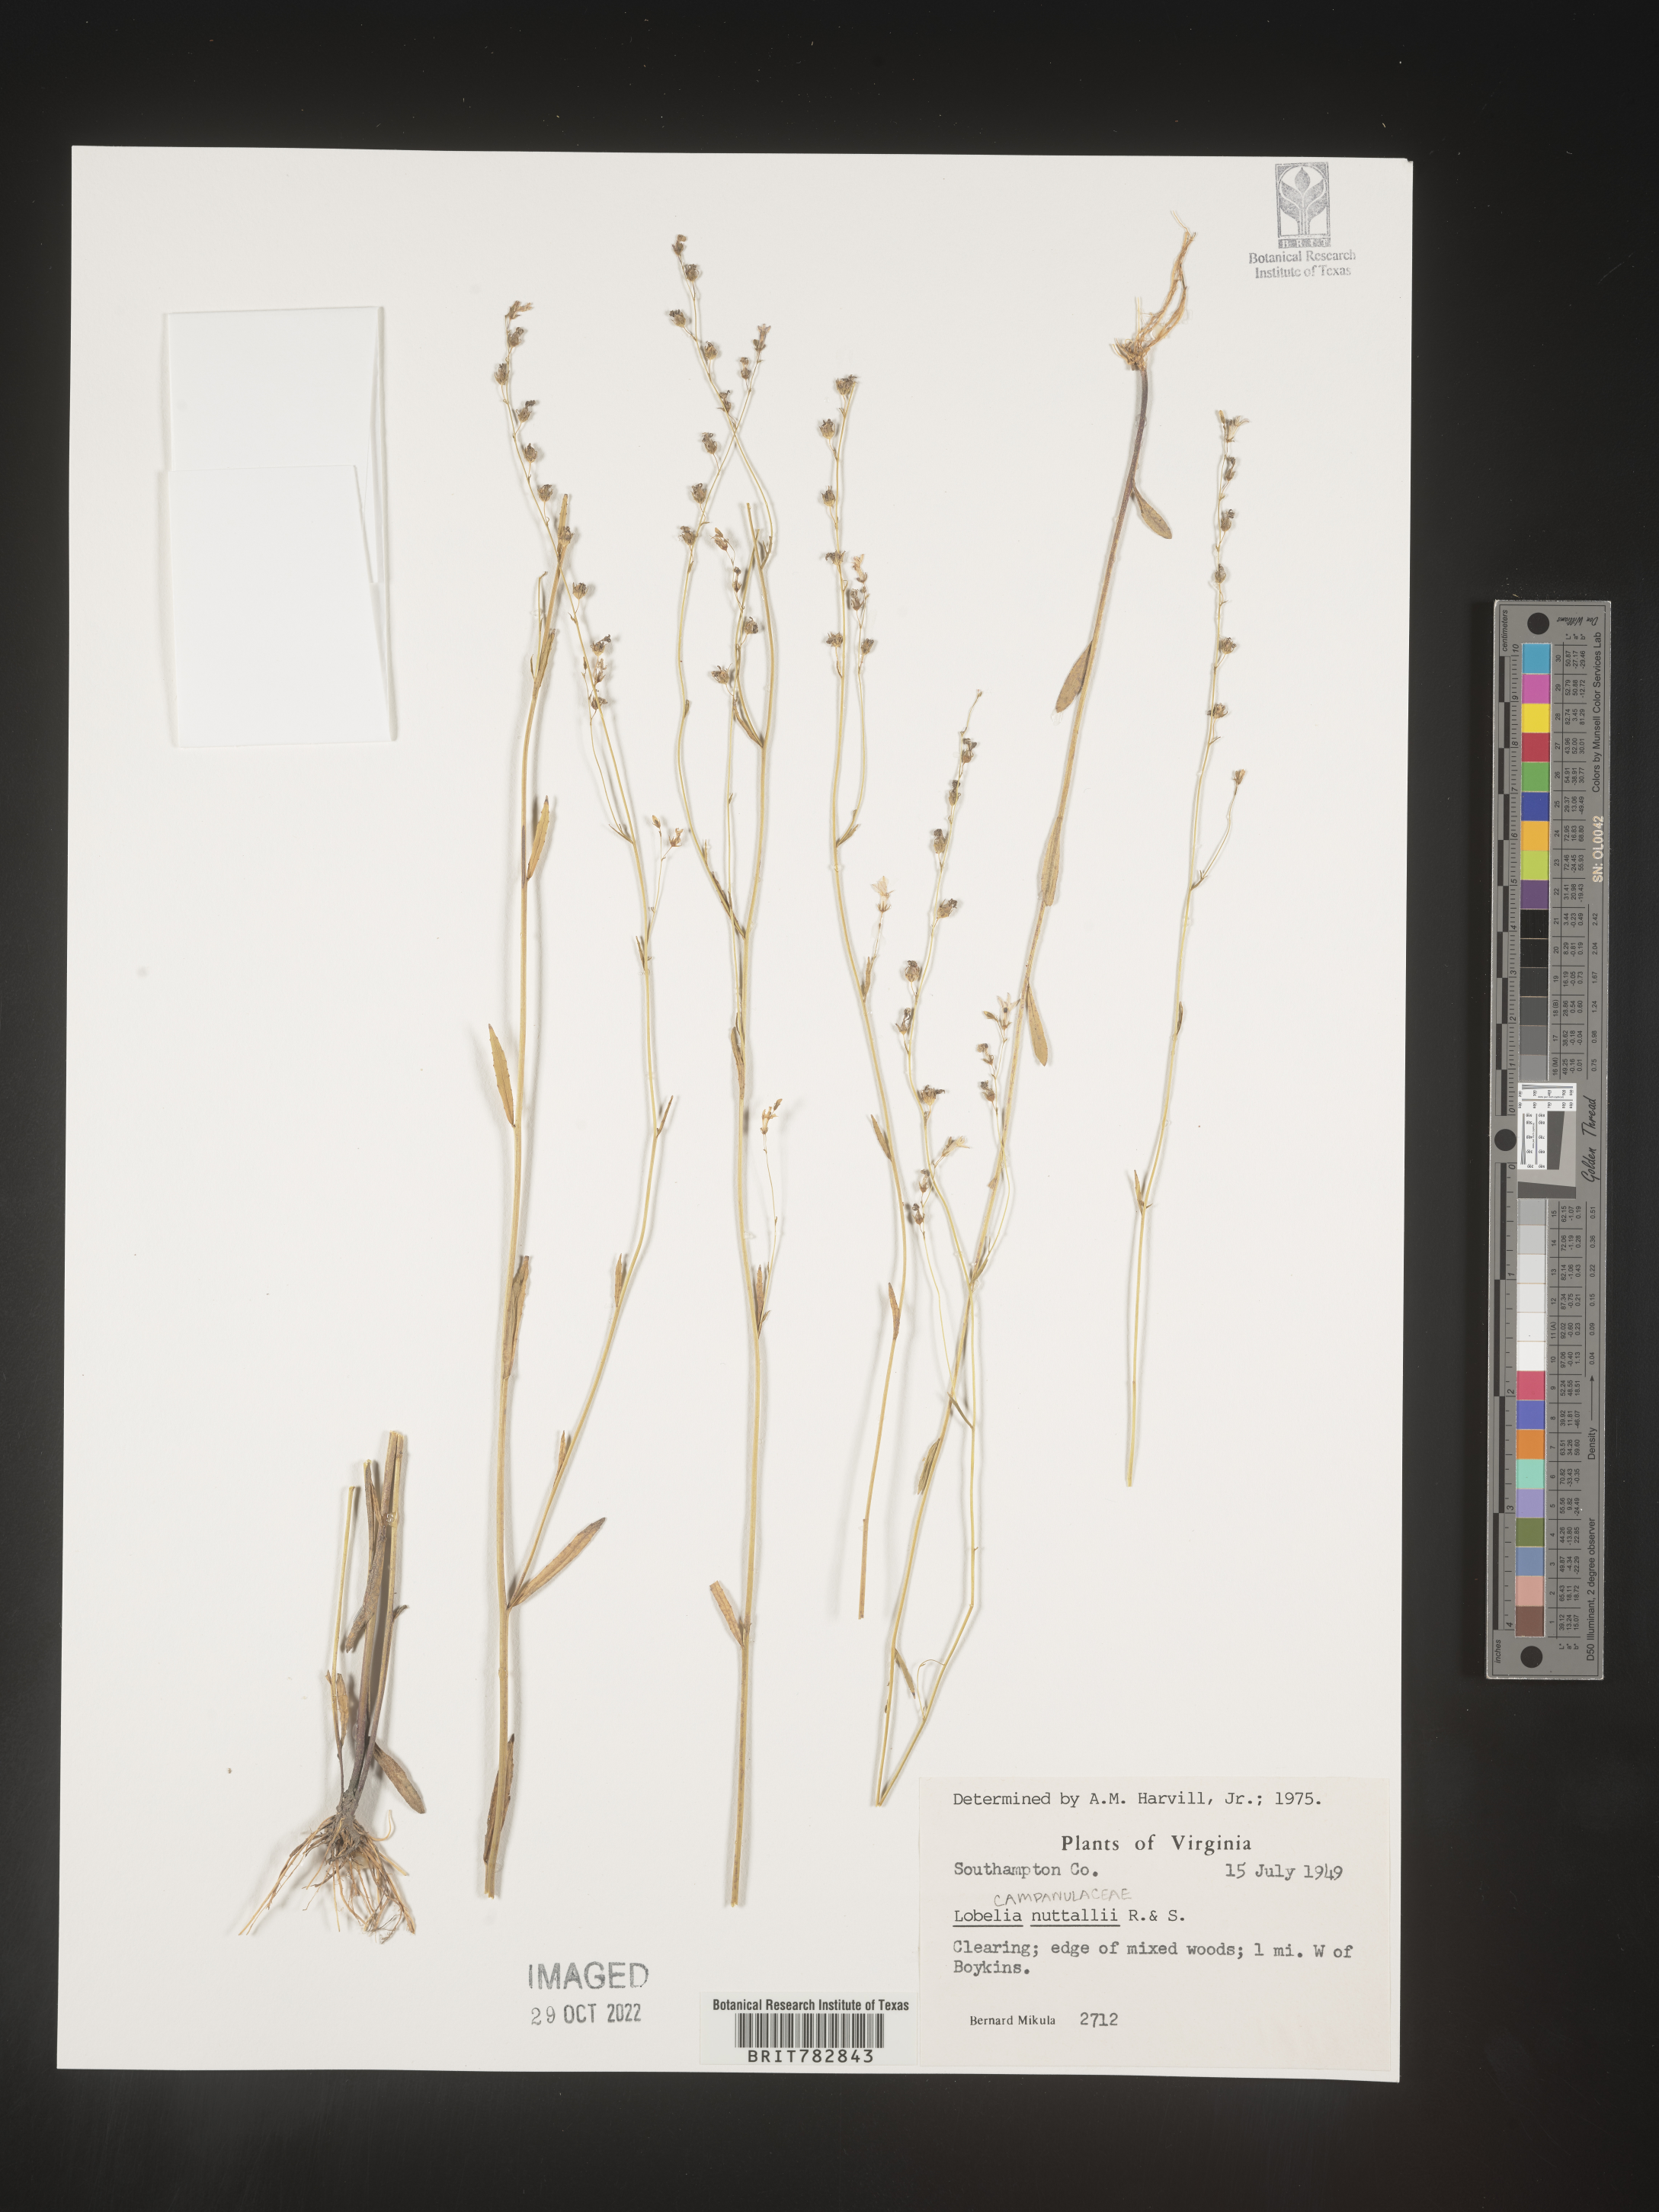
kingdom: Plantae
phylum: Tracheophyta
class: Magnoliopsida
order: Asterales
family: Campanulaceae
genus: Lobelia
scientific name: Lobelia nuttallii
